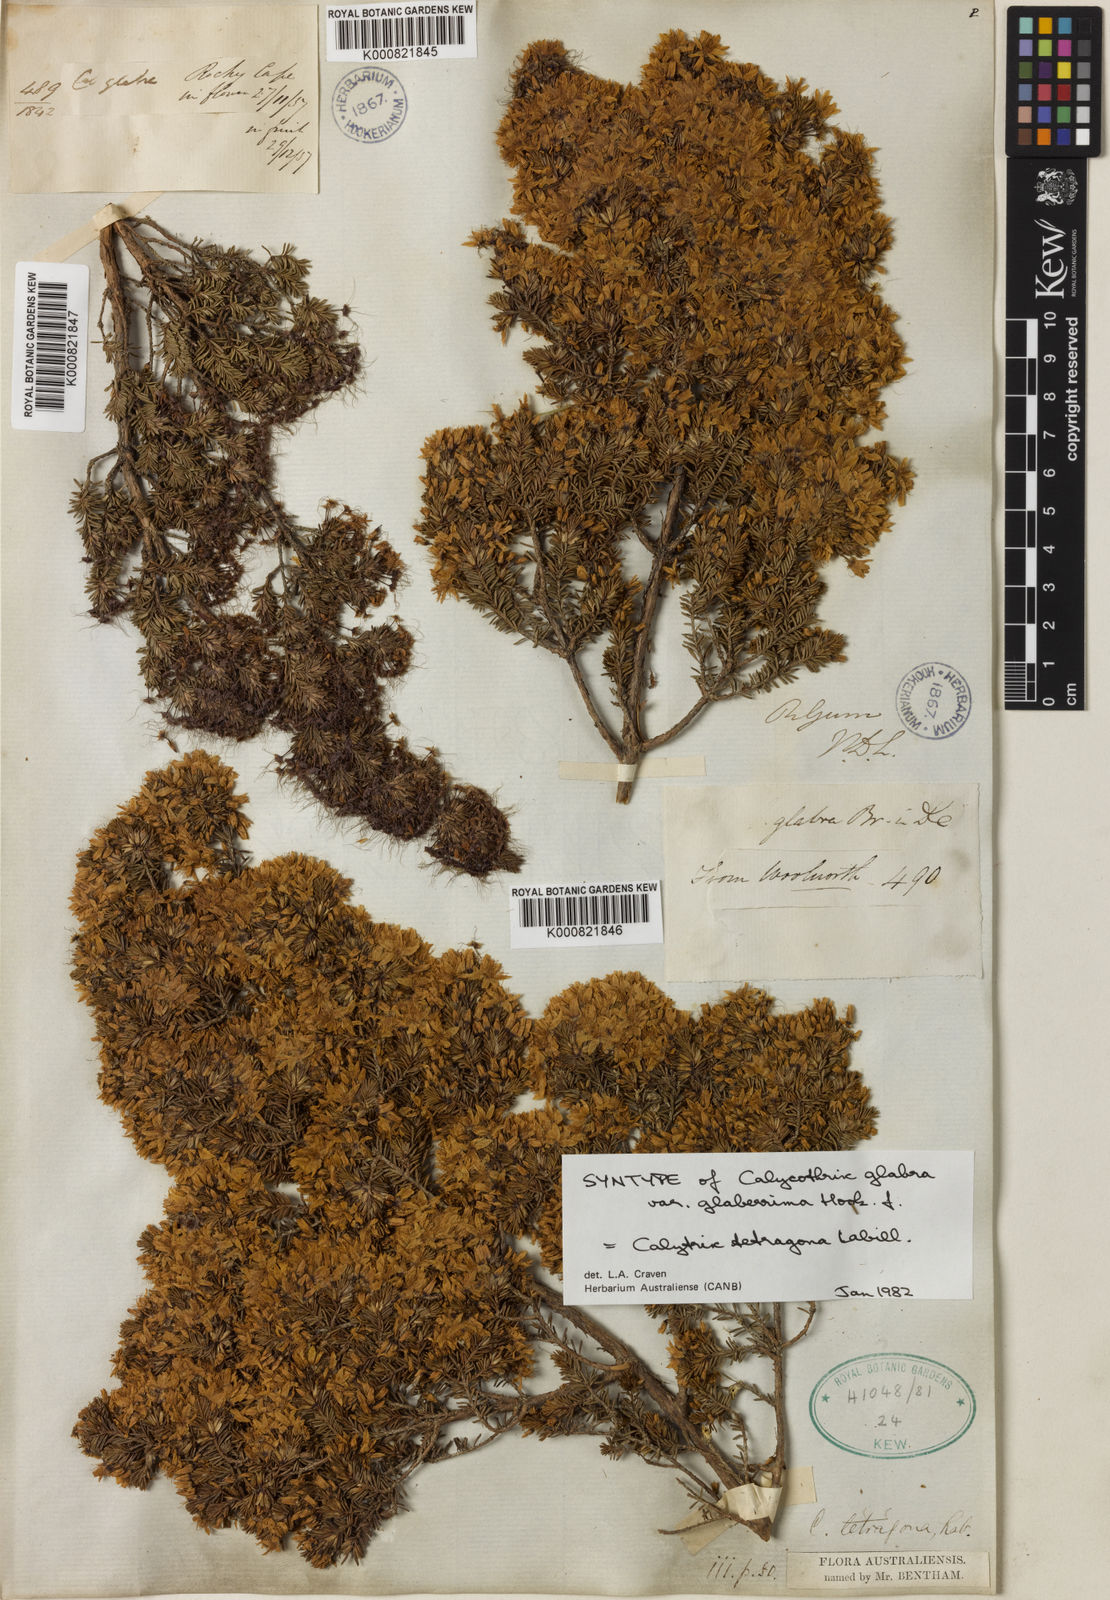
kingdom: Plantae
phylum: Tracheophyta
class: Magnoliopsida
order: Myrtales
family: Myrtaceae
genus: Calytrix
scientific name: Calytrix tetragona
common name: Common fringe myrtle
